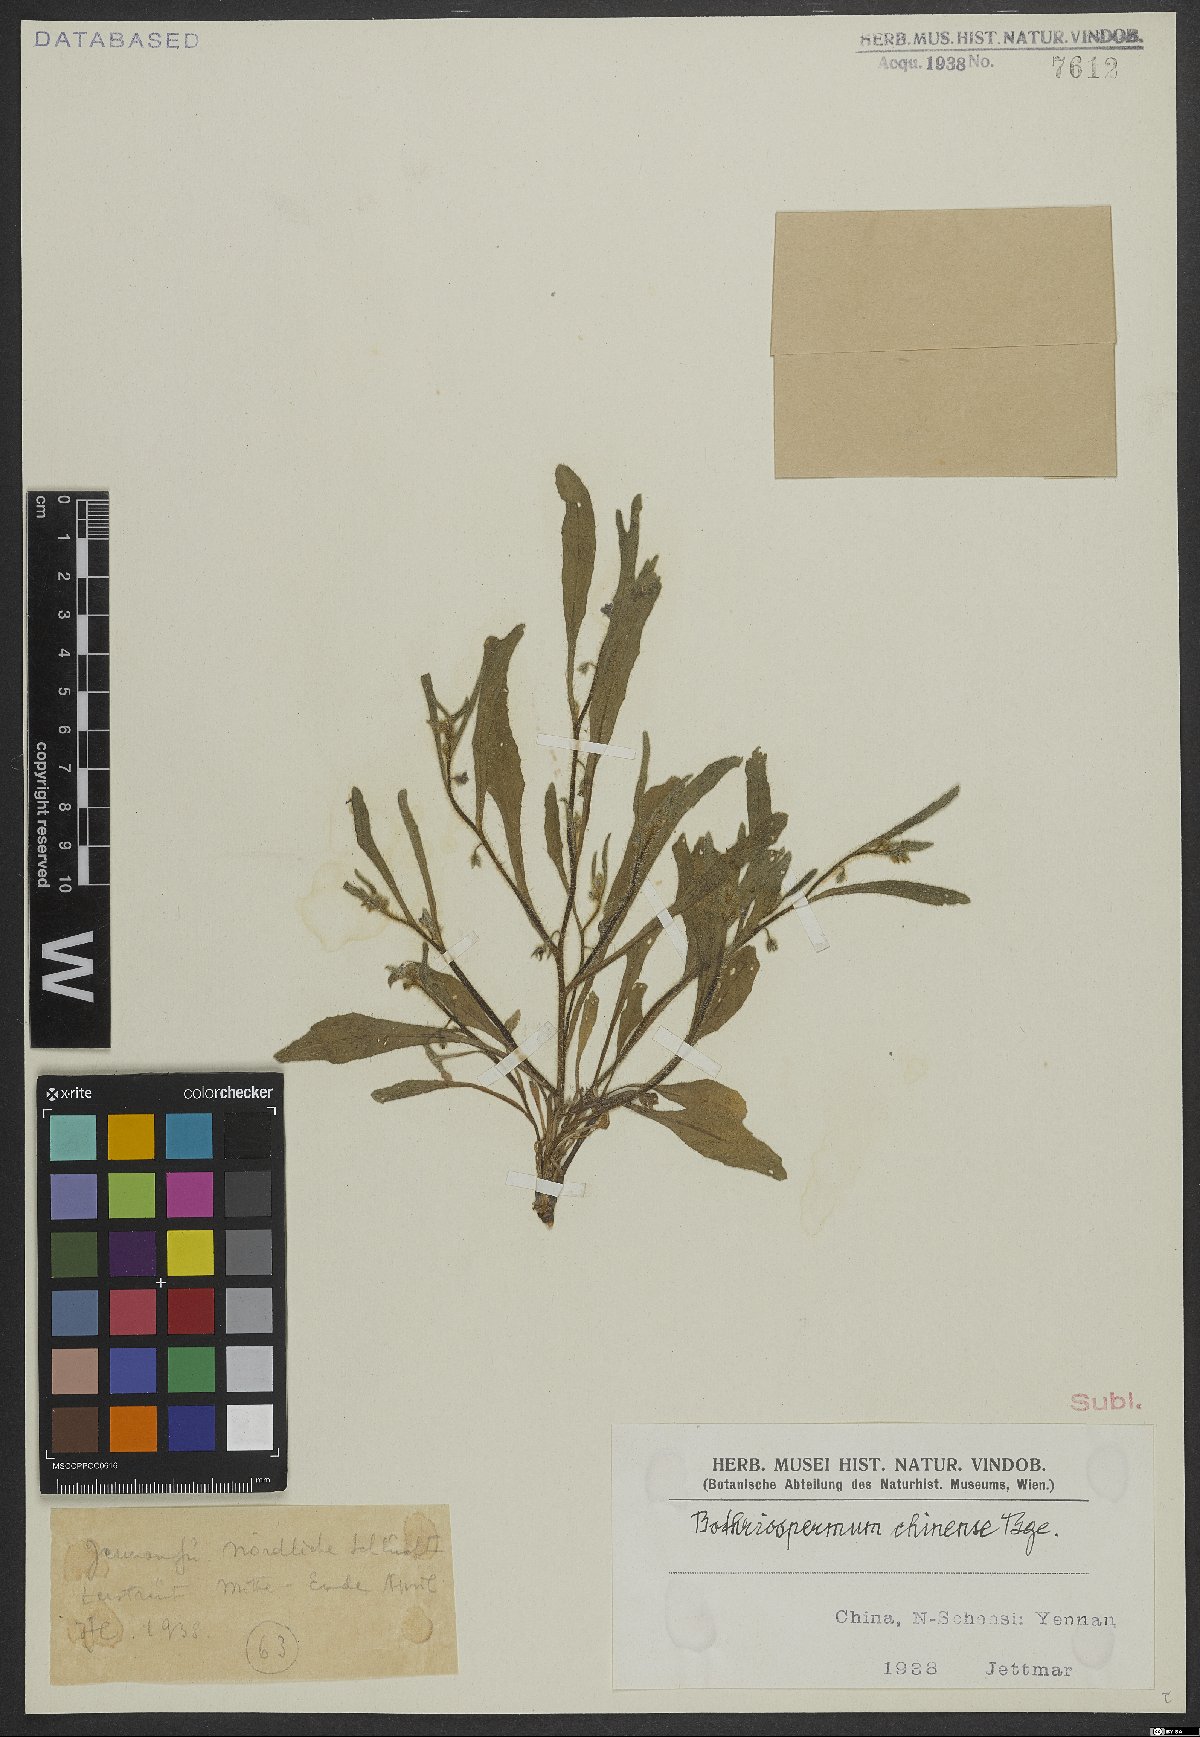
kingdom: Plantae
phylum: Tracheophyta
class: Magnoliopsida
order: Boraginales
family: Boraginaceae
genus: Bothriospermum
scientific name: Bothriospermum chinense
